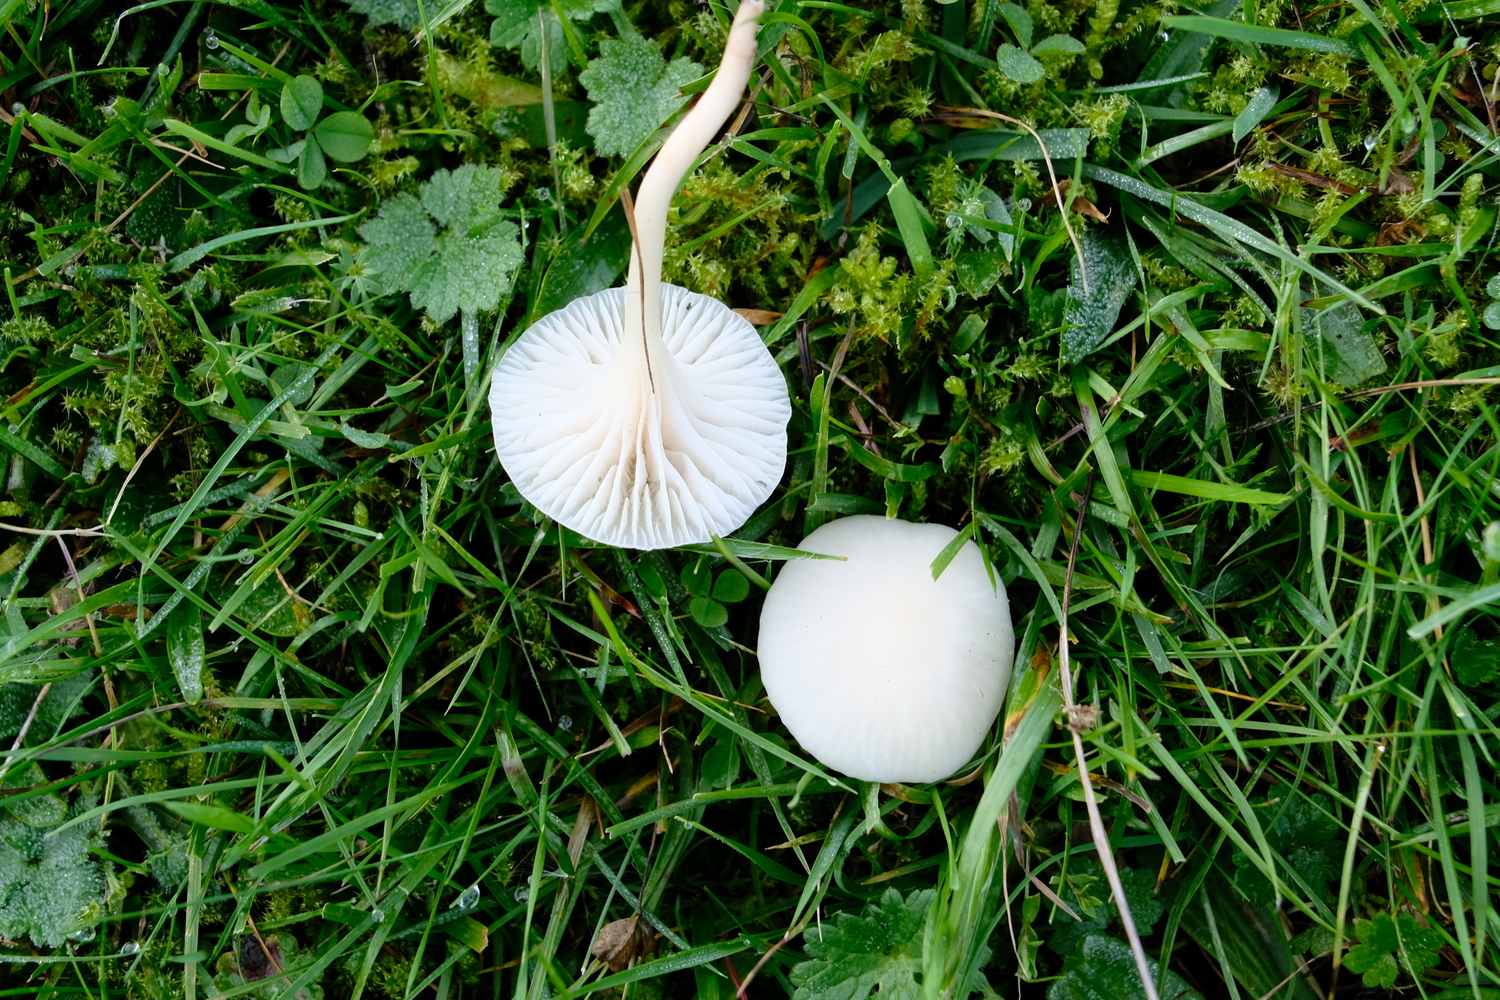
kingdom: Fungi
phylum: Basidiomycota
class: Agaricomycetes
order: Agaricales
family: Hygrophoraceae
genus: Cuphophyllus
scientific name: Cuphophyllus virgineus
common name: snehvid vokshat
